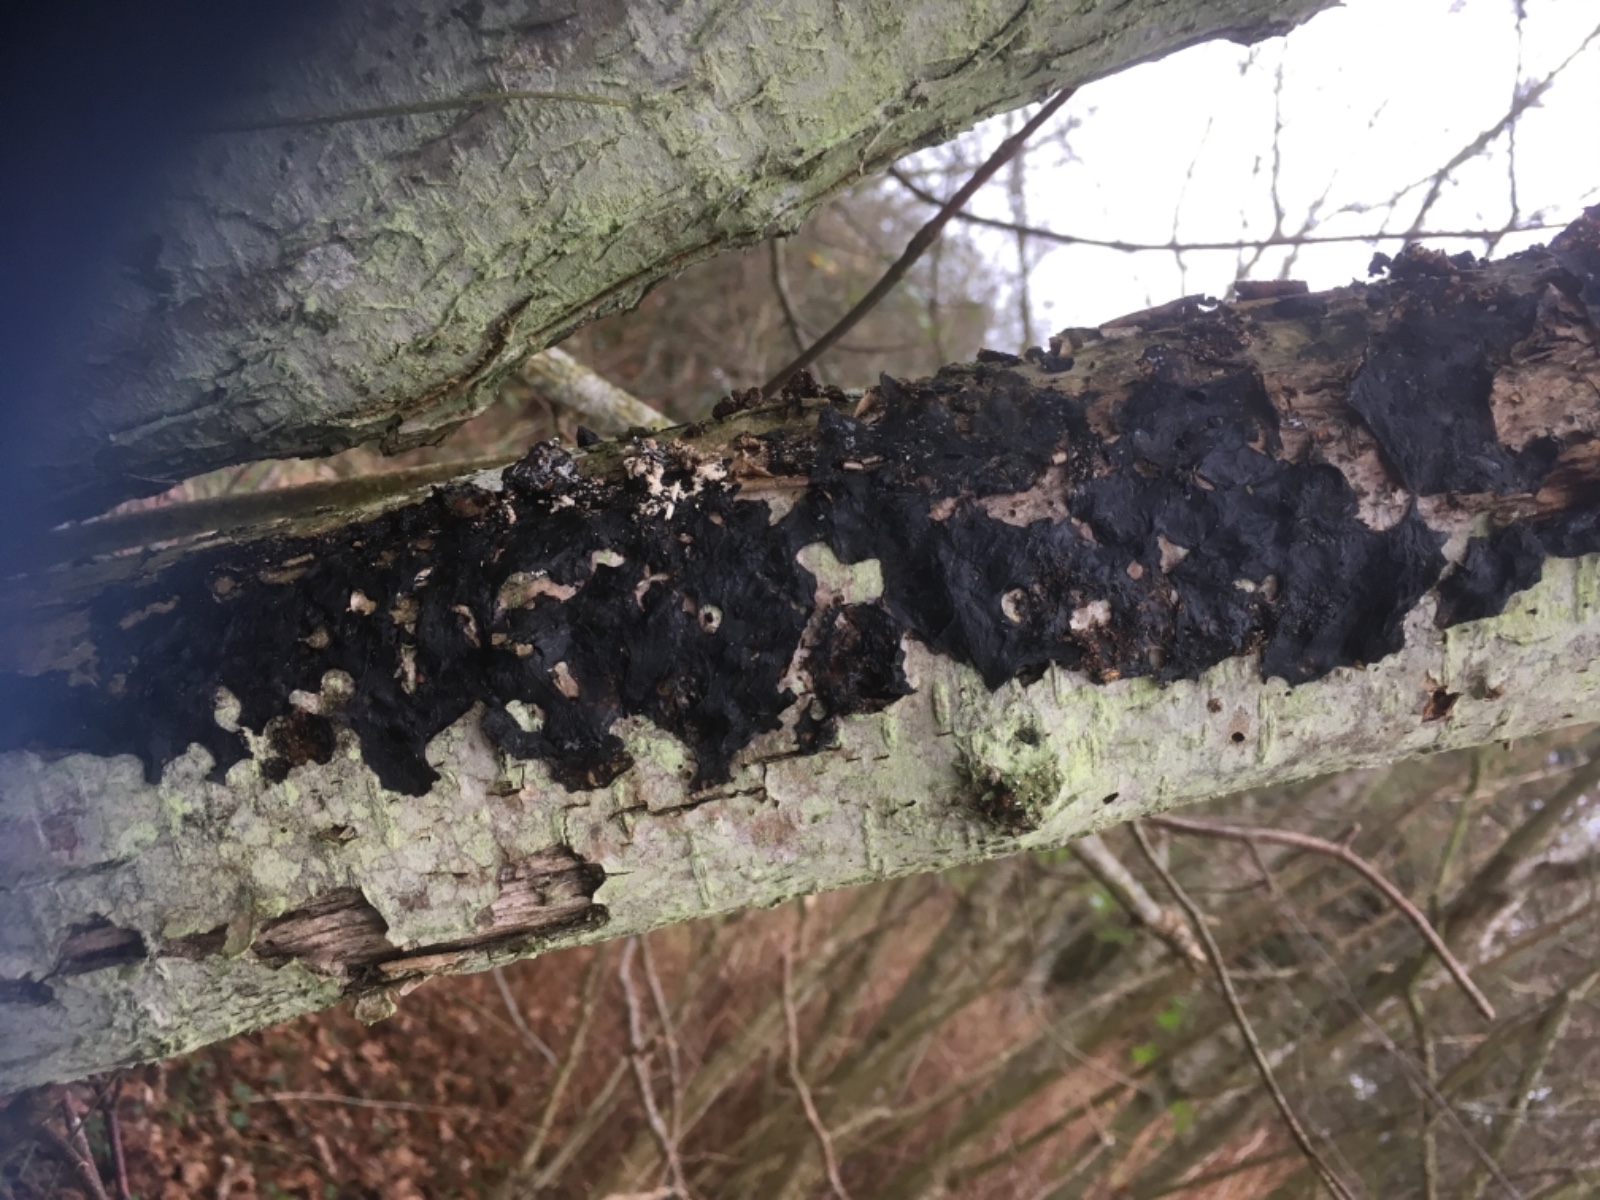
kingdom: Fungi
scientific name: Fungi
